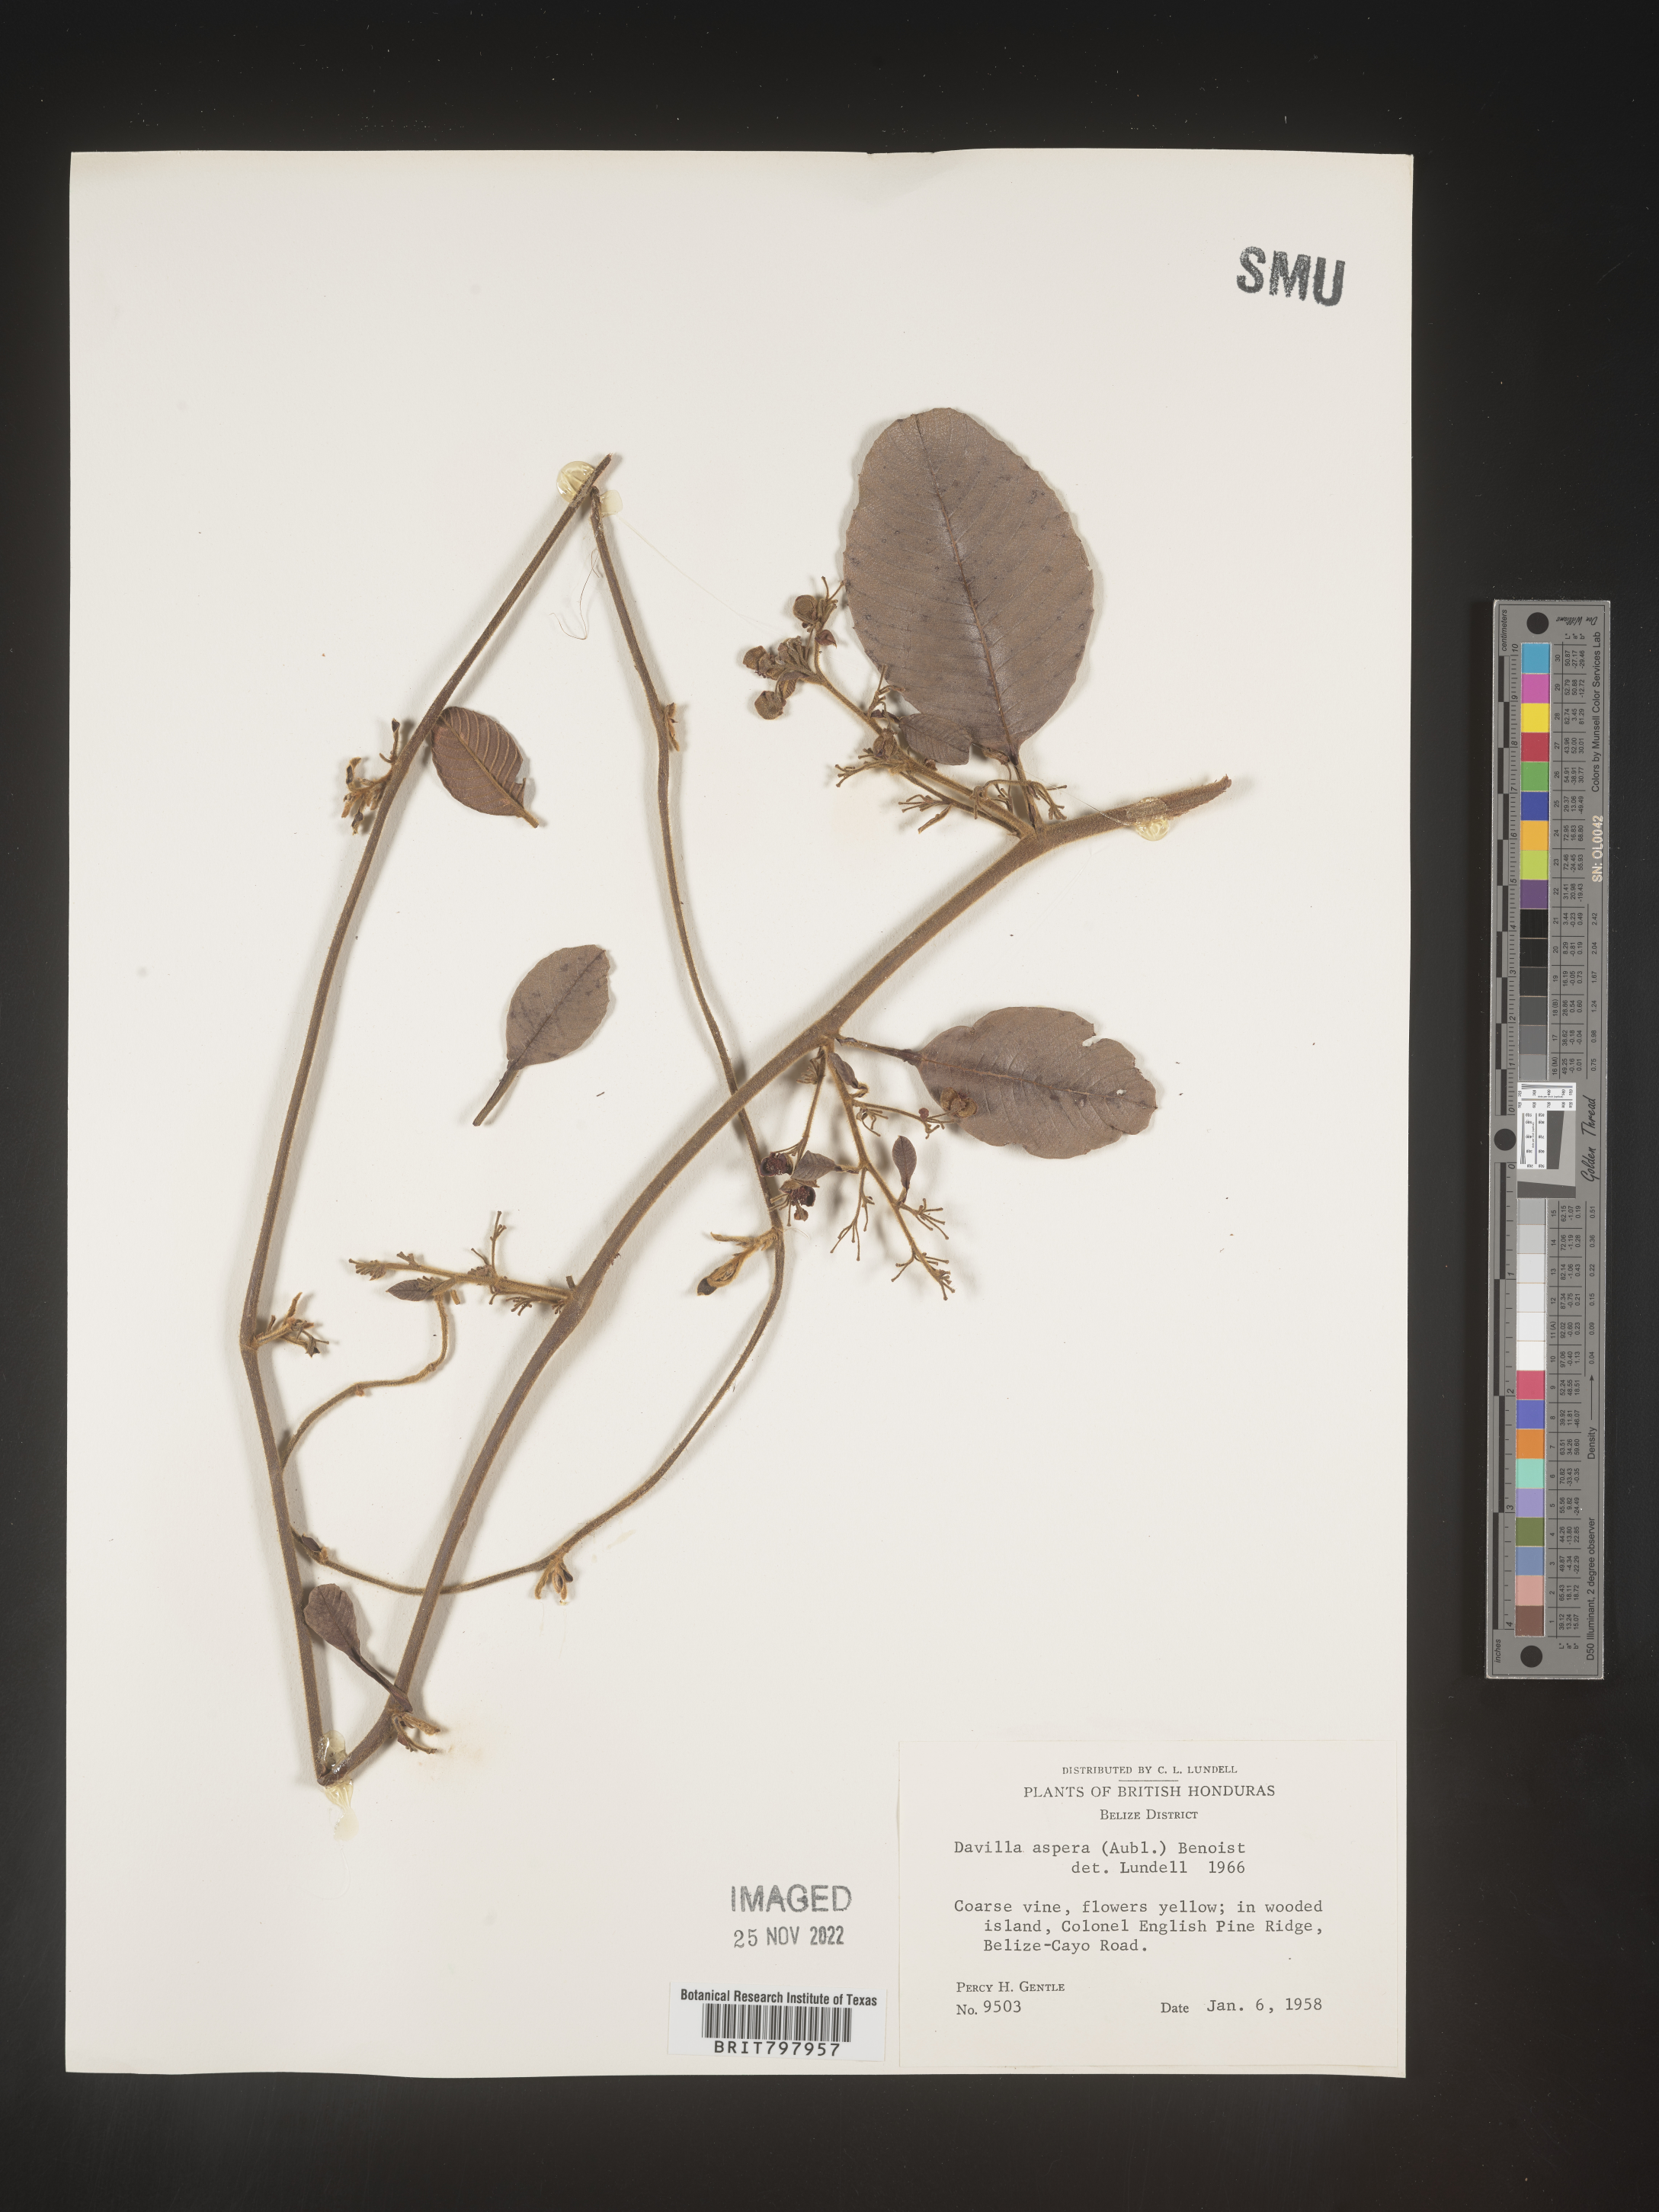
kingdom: Plantae
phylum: Tracheophyta
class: Polypodiopsida
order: Polypodiales
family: Davalliaceae
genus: Davallia
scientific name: Davallia
